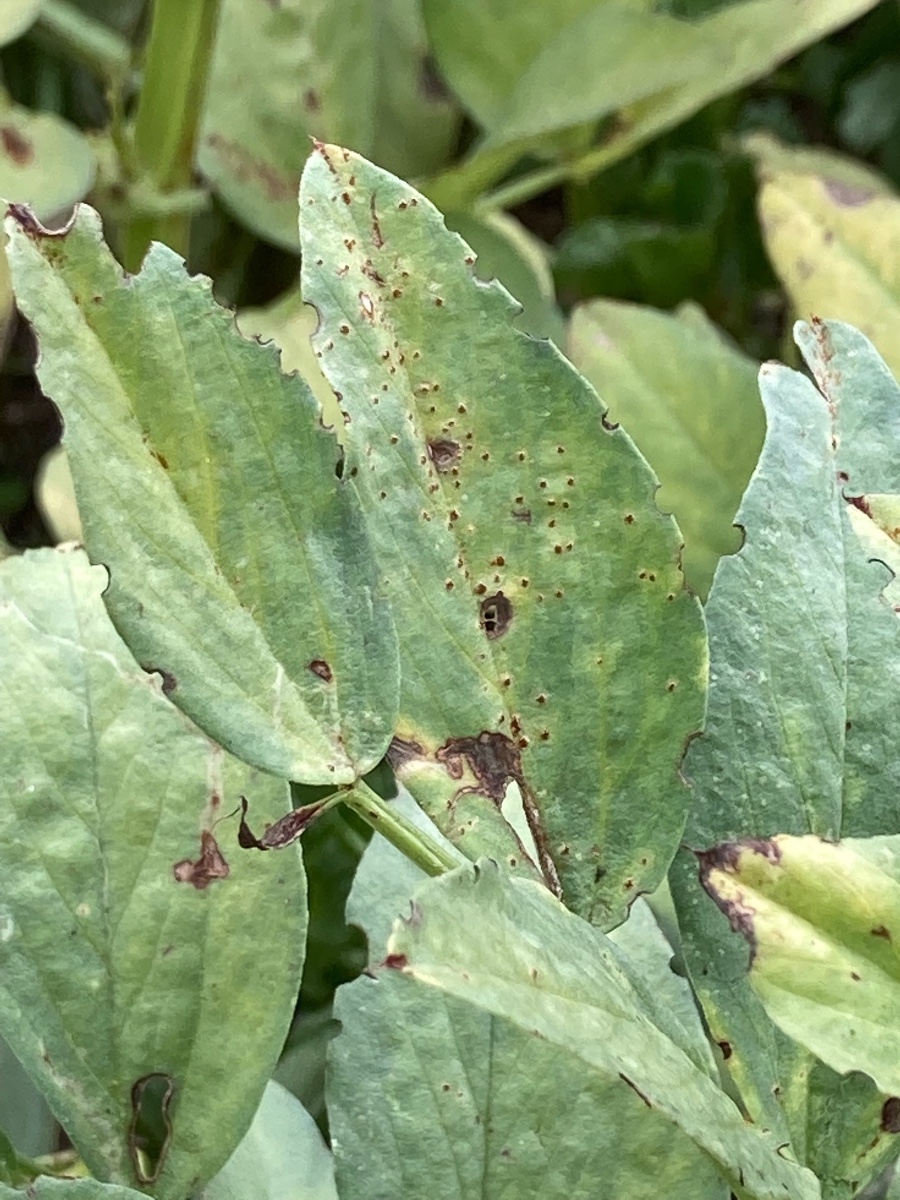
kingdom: Fungi
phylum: Basidiomycota
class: Pucciniomycetes
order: Pucciniales
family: Pucciniaceae
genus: Uromyces
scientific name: Uromyces viciae-fabae
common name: Broad bean rust
